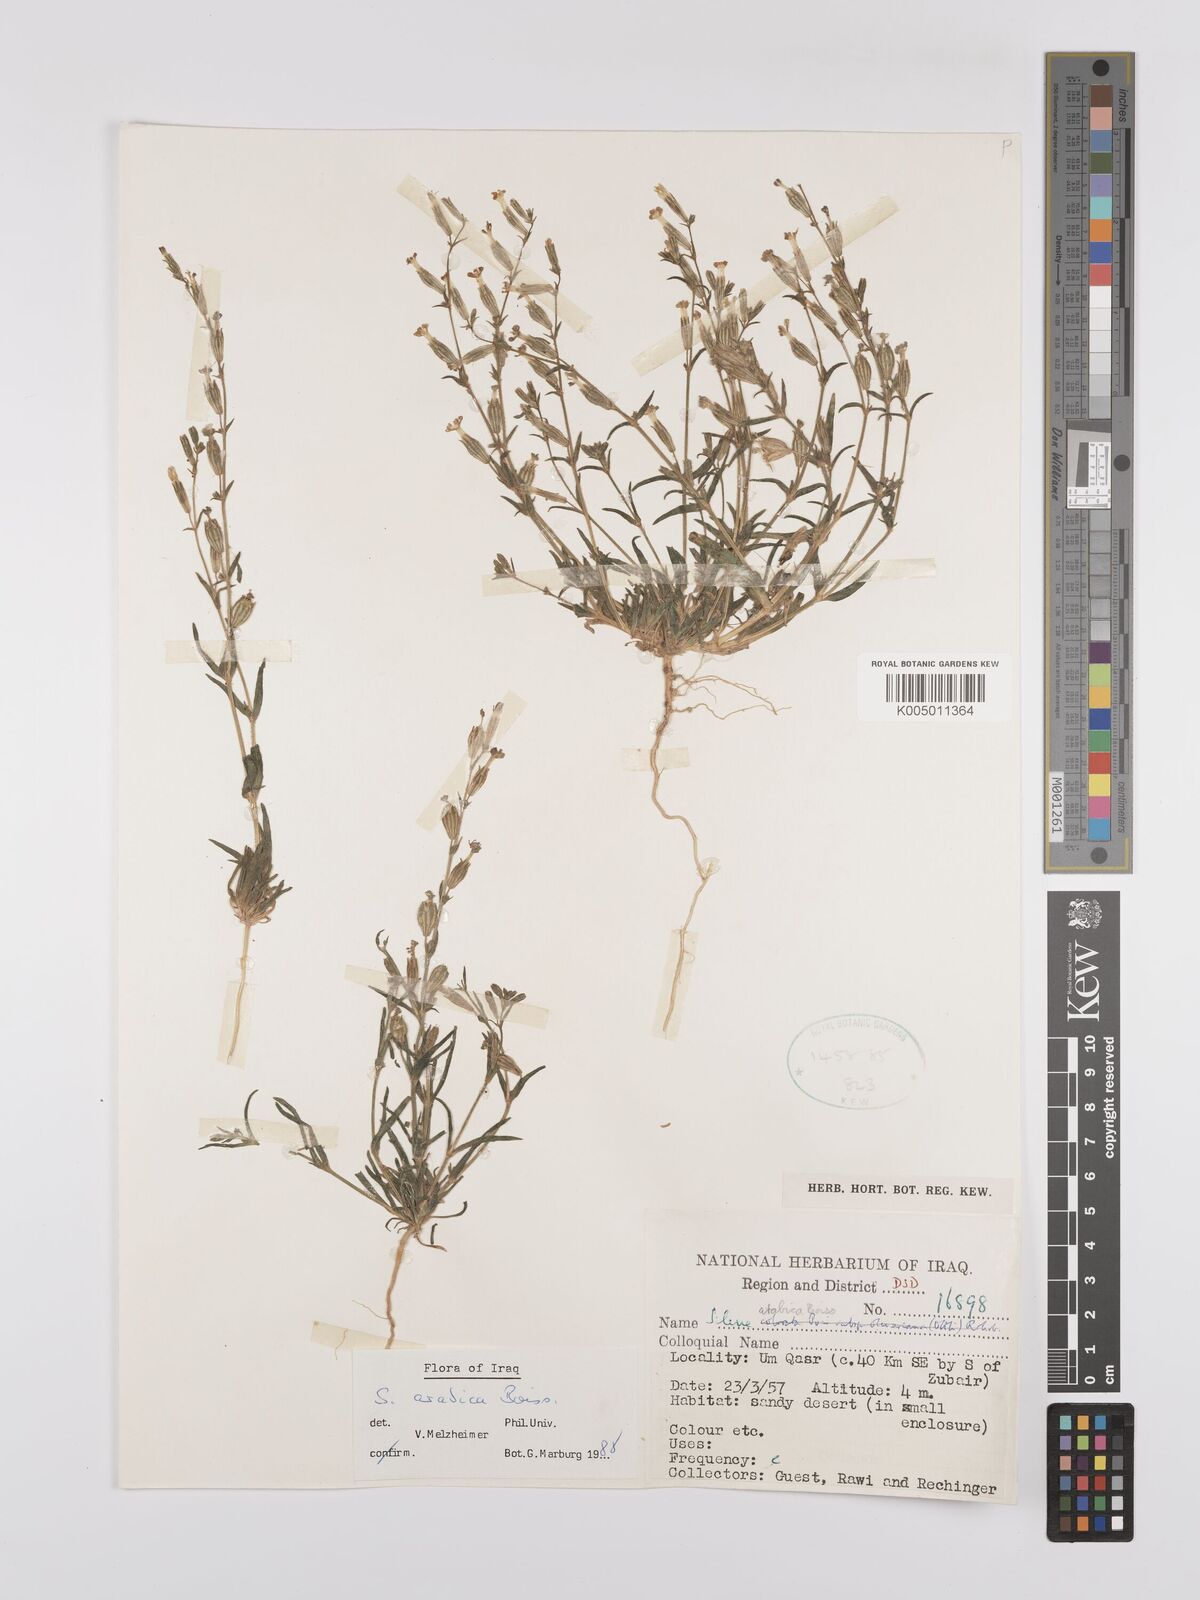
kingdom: Plantae
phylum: Tracheophyta
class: Magnoliopsida
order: Caryophyllales
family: Caryophyllaceae
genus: Silene
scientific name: Silene arabica
